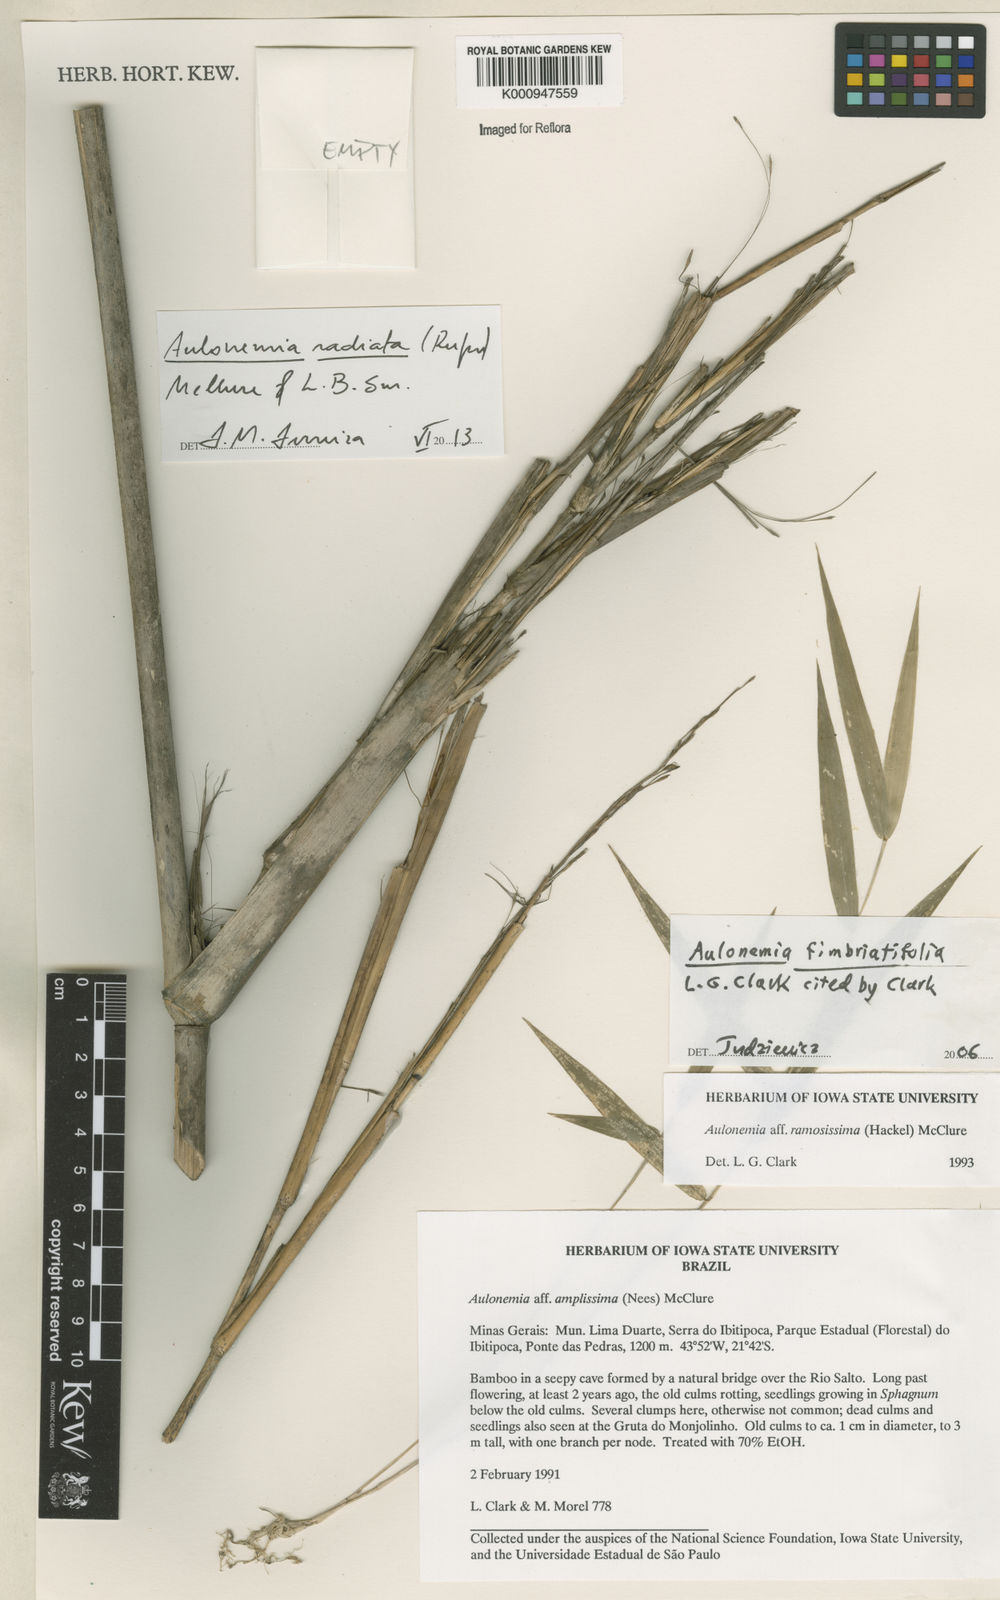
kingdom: Plantae
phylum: Tracheophyta
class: Liliopsida
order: Poales
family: Poaceae
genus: Aulonemia
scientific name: Aulonemia radiata
